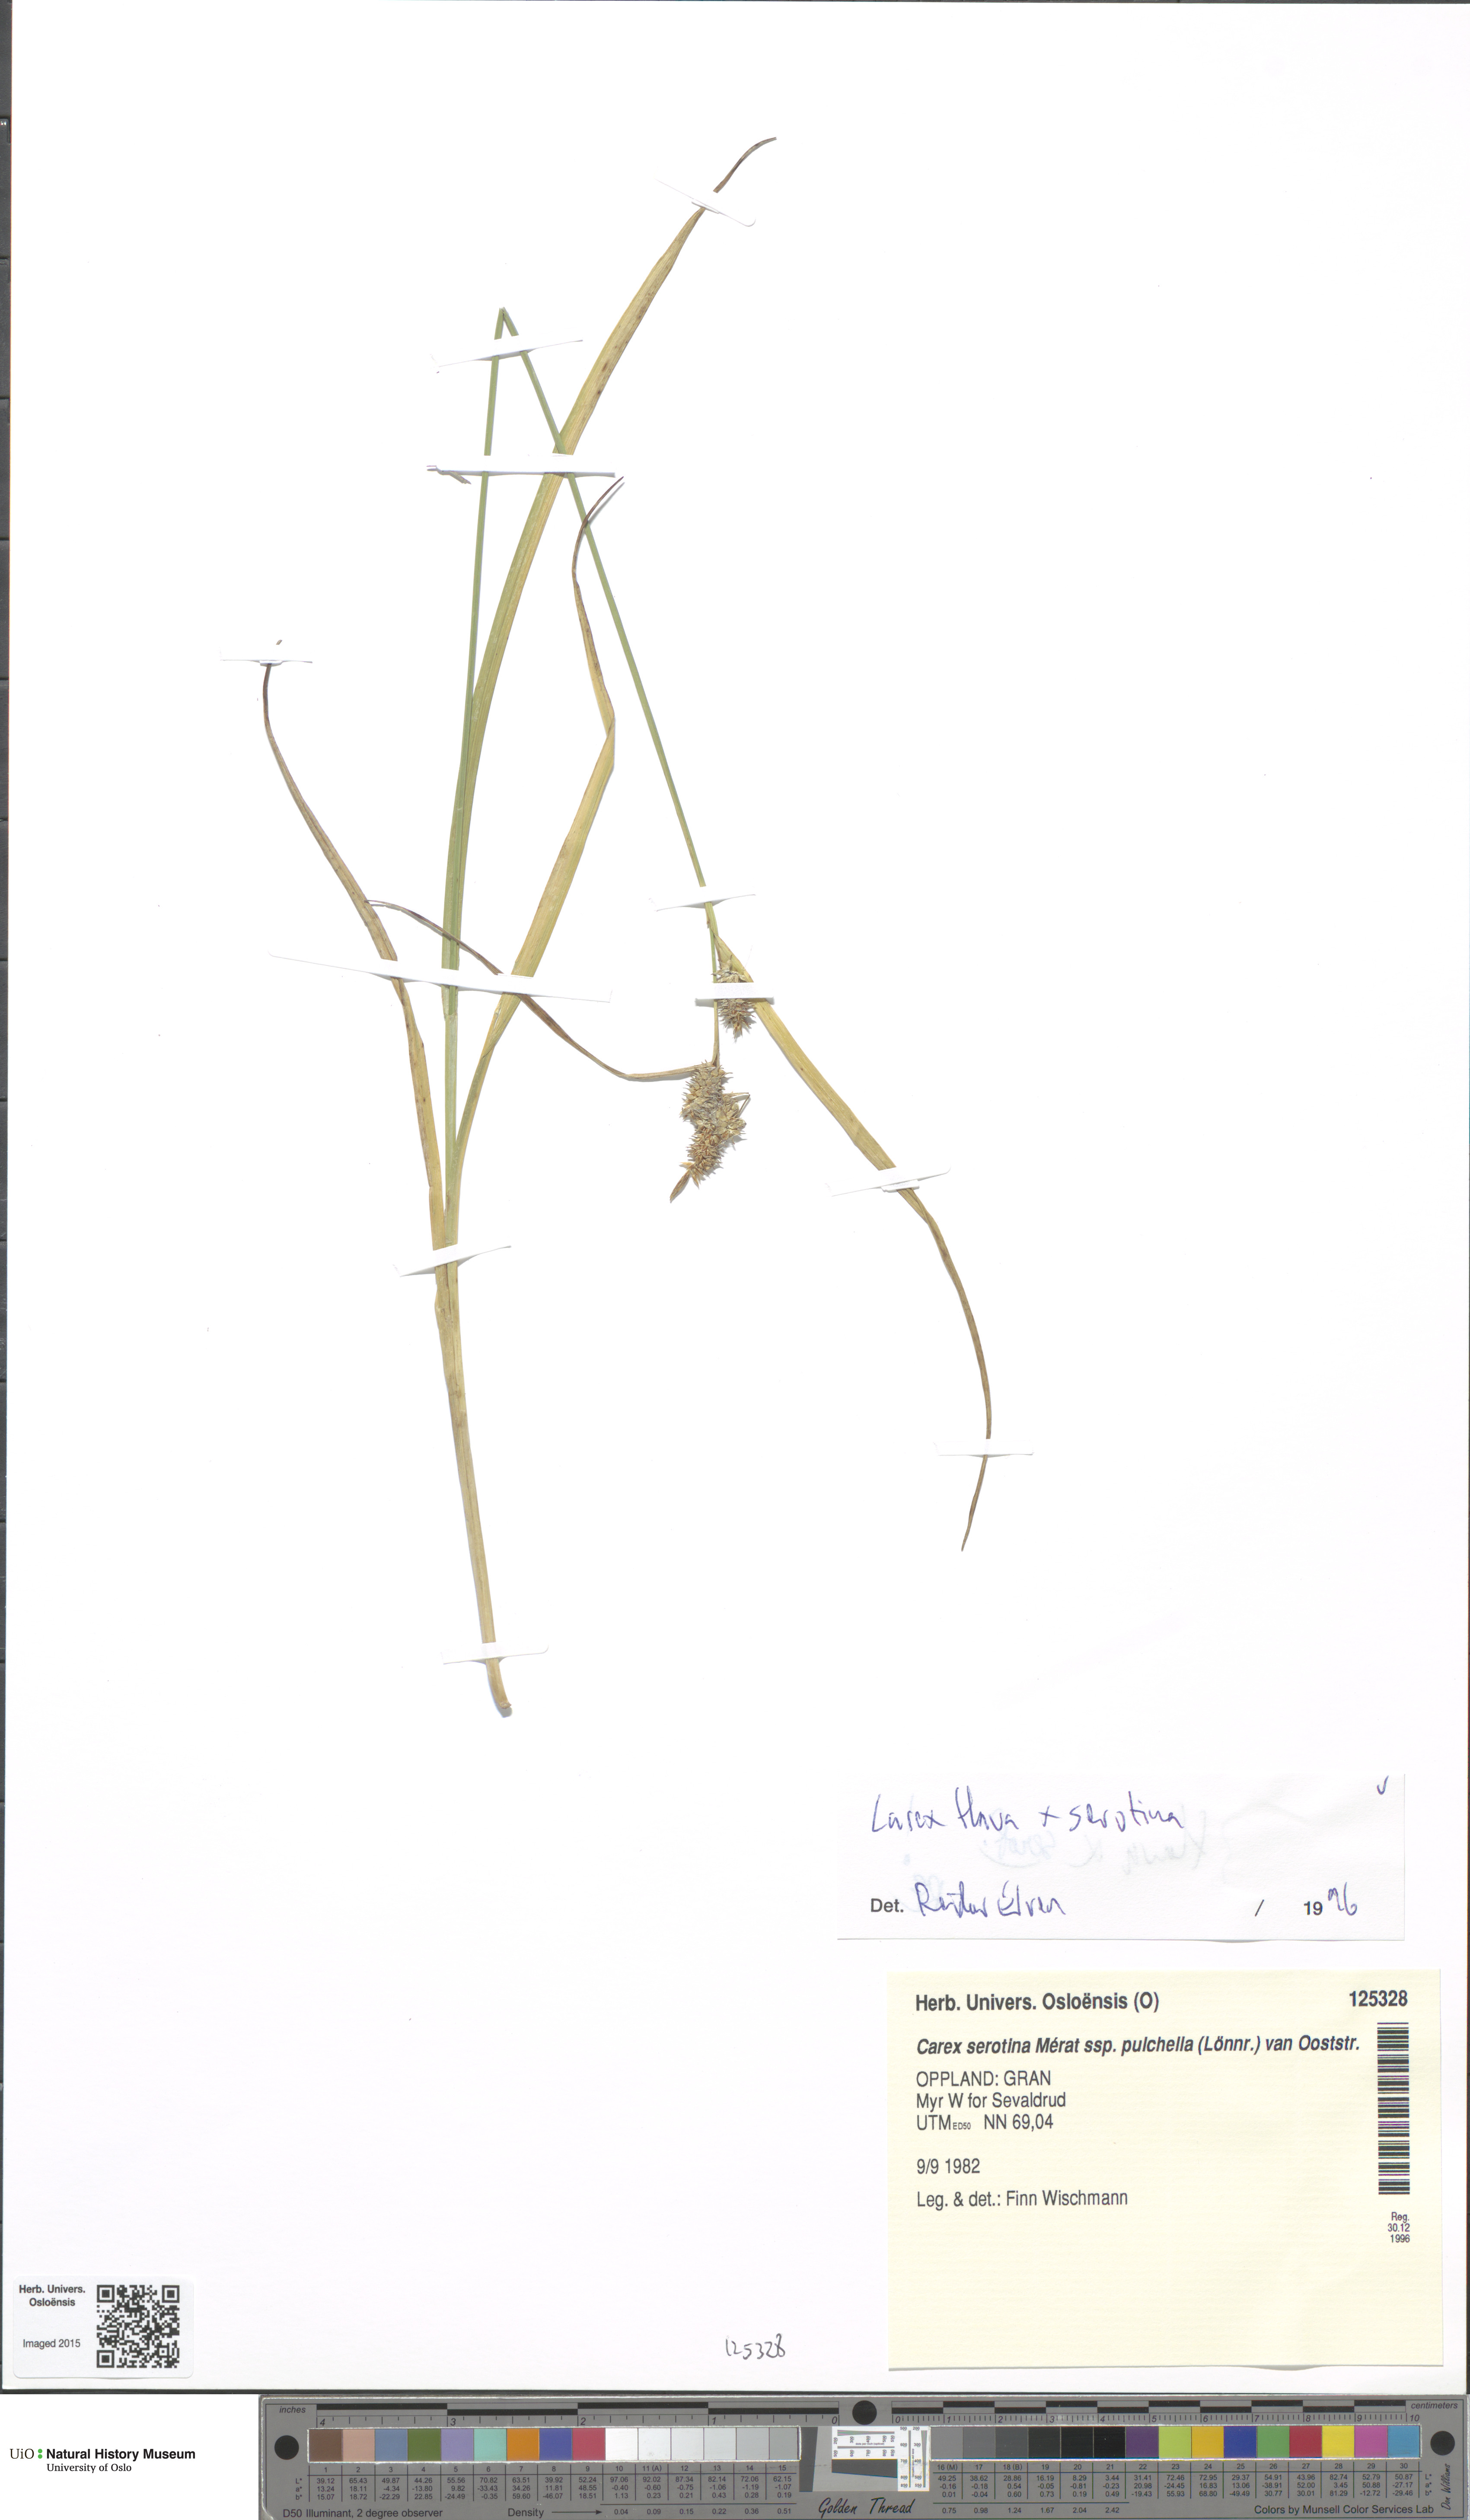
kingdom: Plantae
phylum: Tracheophyta
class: Liliopsida
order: Poales
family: Cyperaceae
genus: Carex
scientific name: Carex
